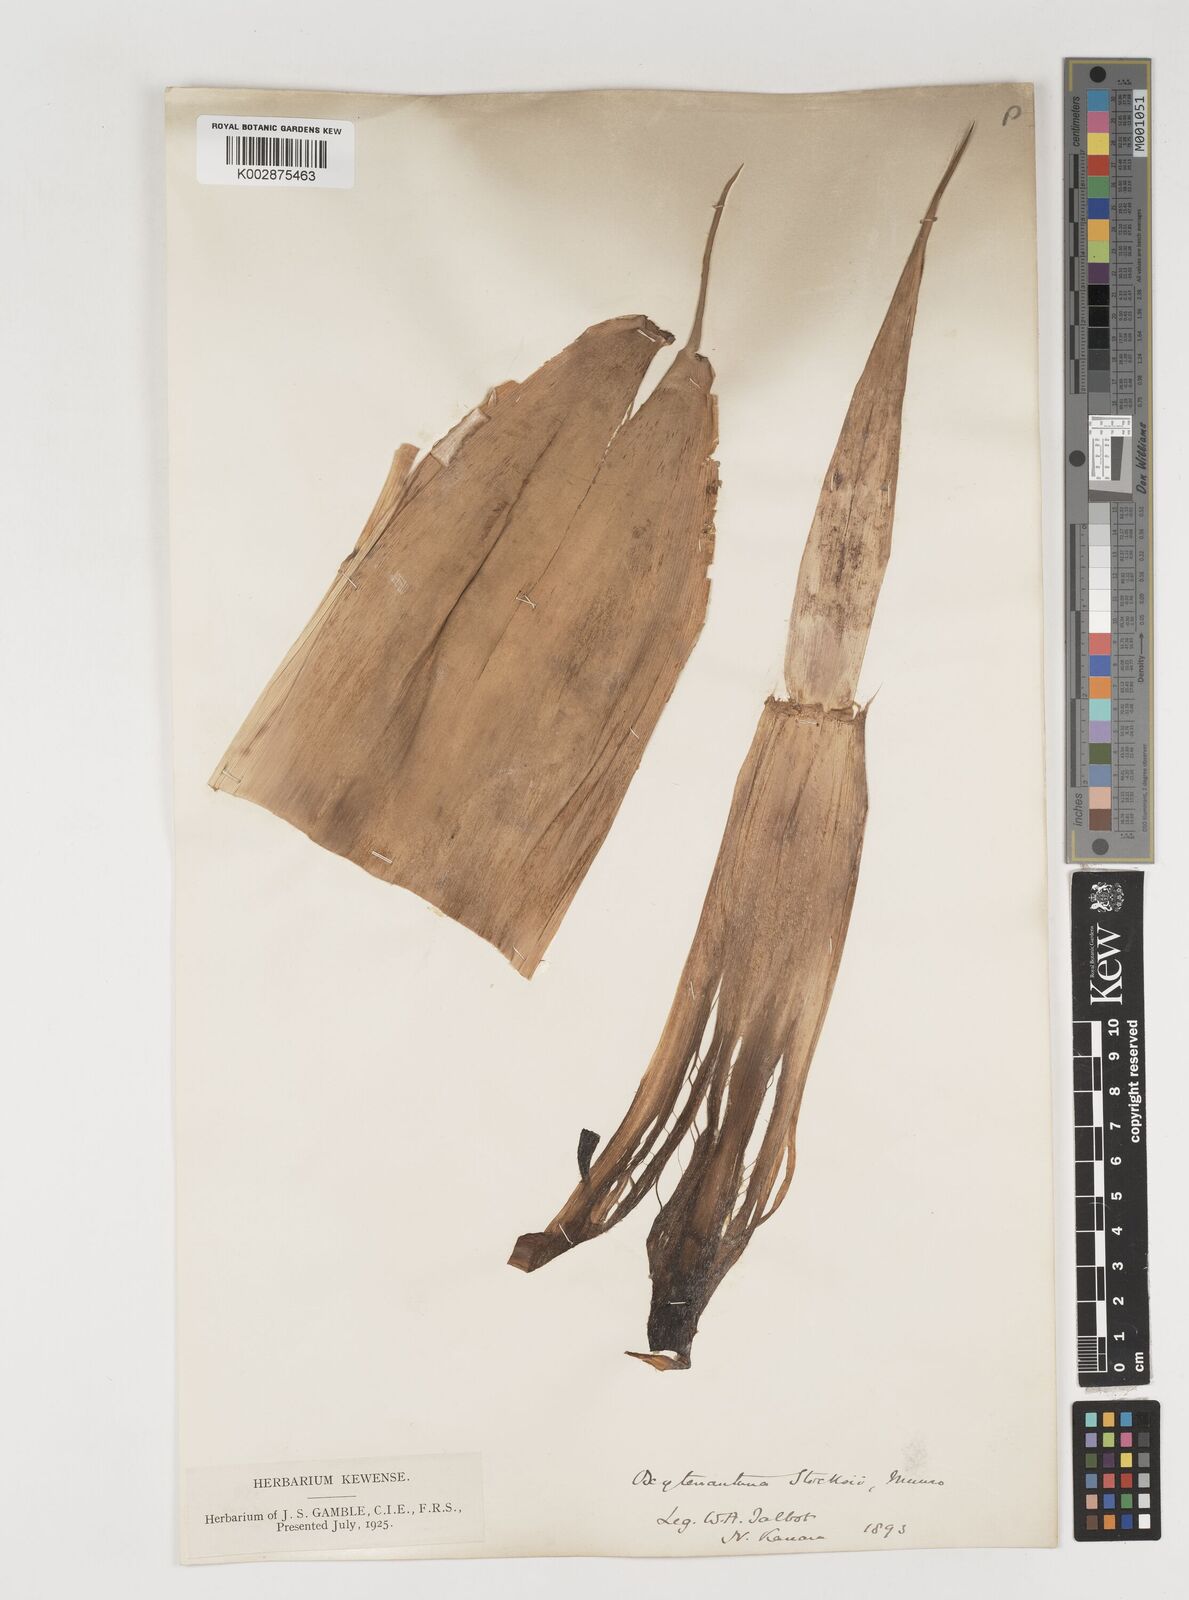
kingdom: Plantae
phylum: Tracheophyta
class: Liliopsida
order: Poales
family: Poaceae
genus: Pseudoxytenanthera
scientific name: Pseudoxytenanthera stocksii
